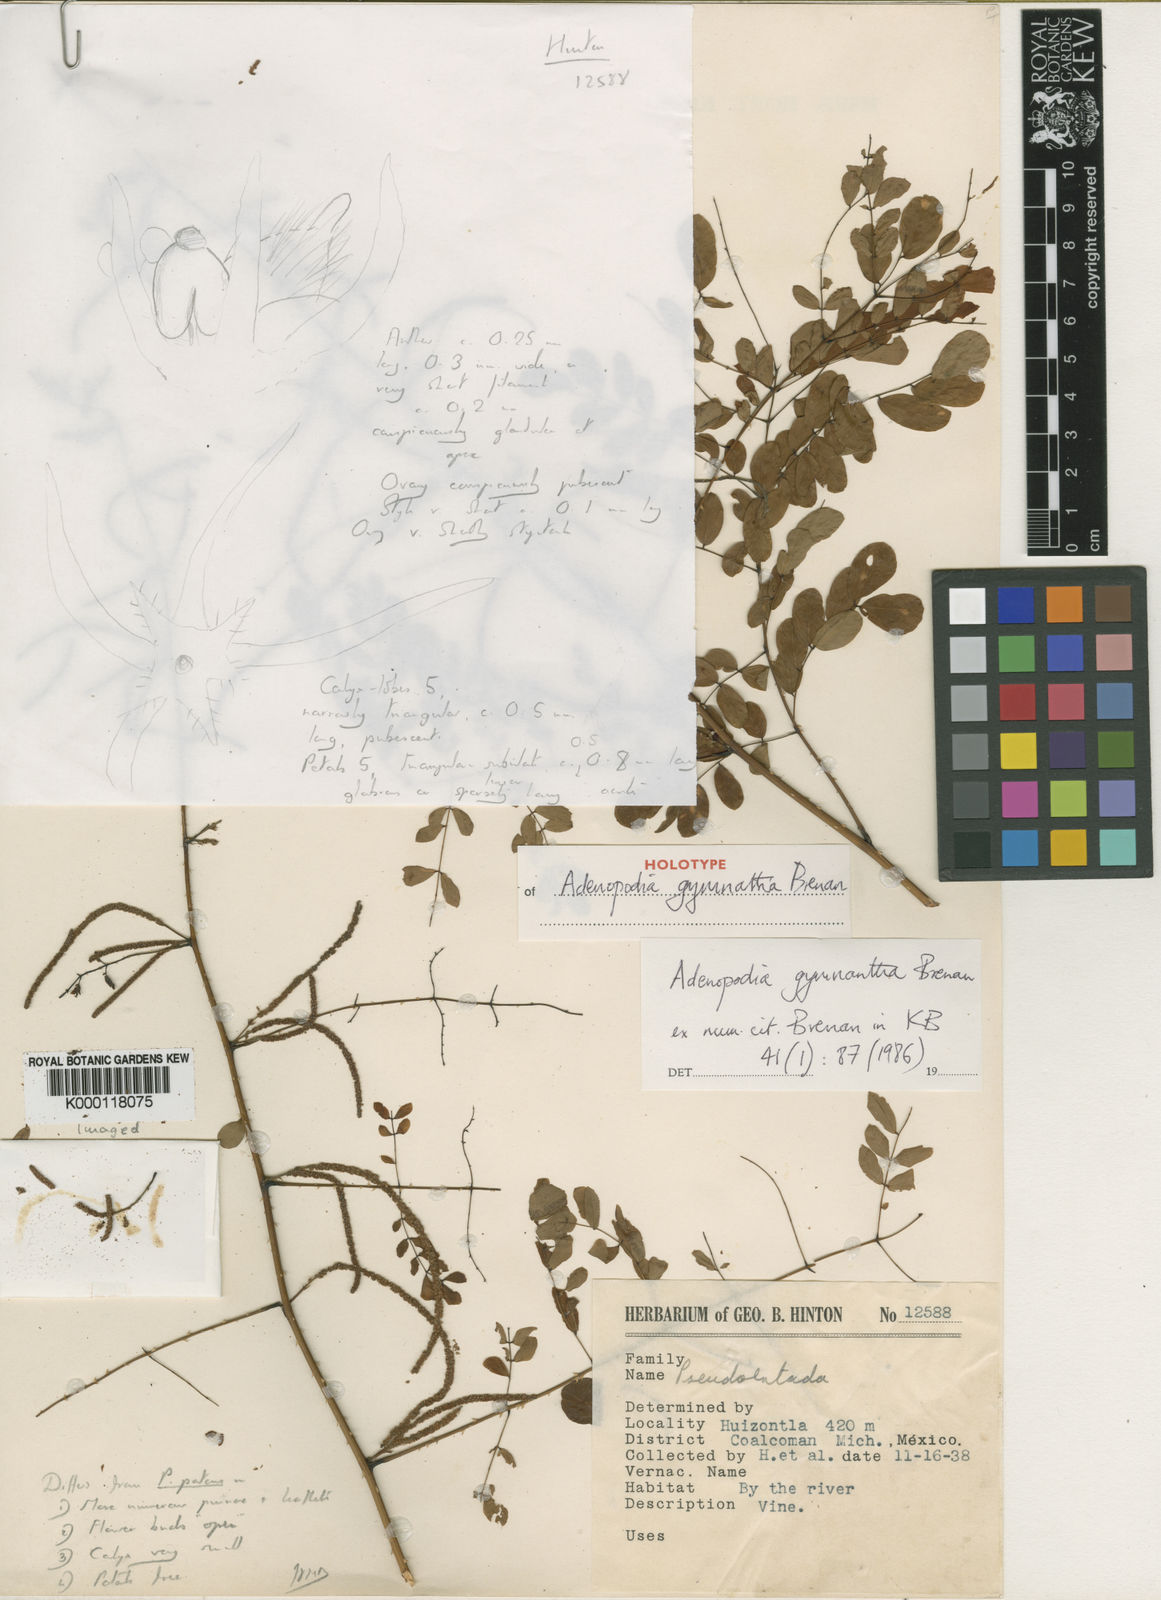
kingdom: Plantae
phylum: Tracheophyta
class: Magnoliopsida
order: Fabales
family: Fabaceae
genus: Adenopodia
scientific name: Adenopodia gymnantha
